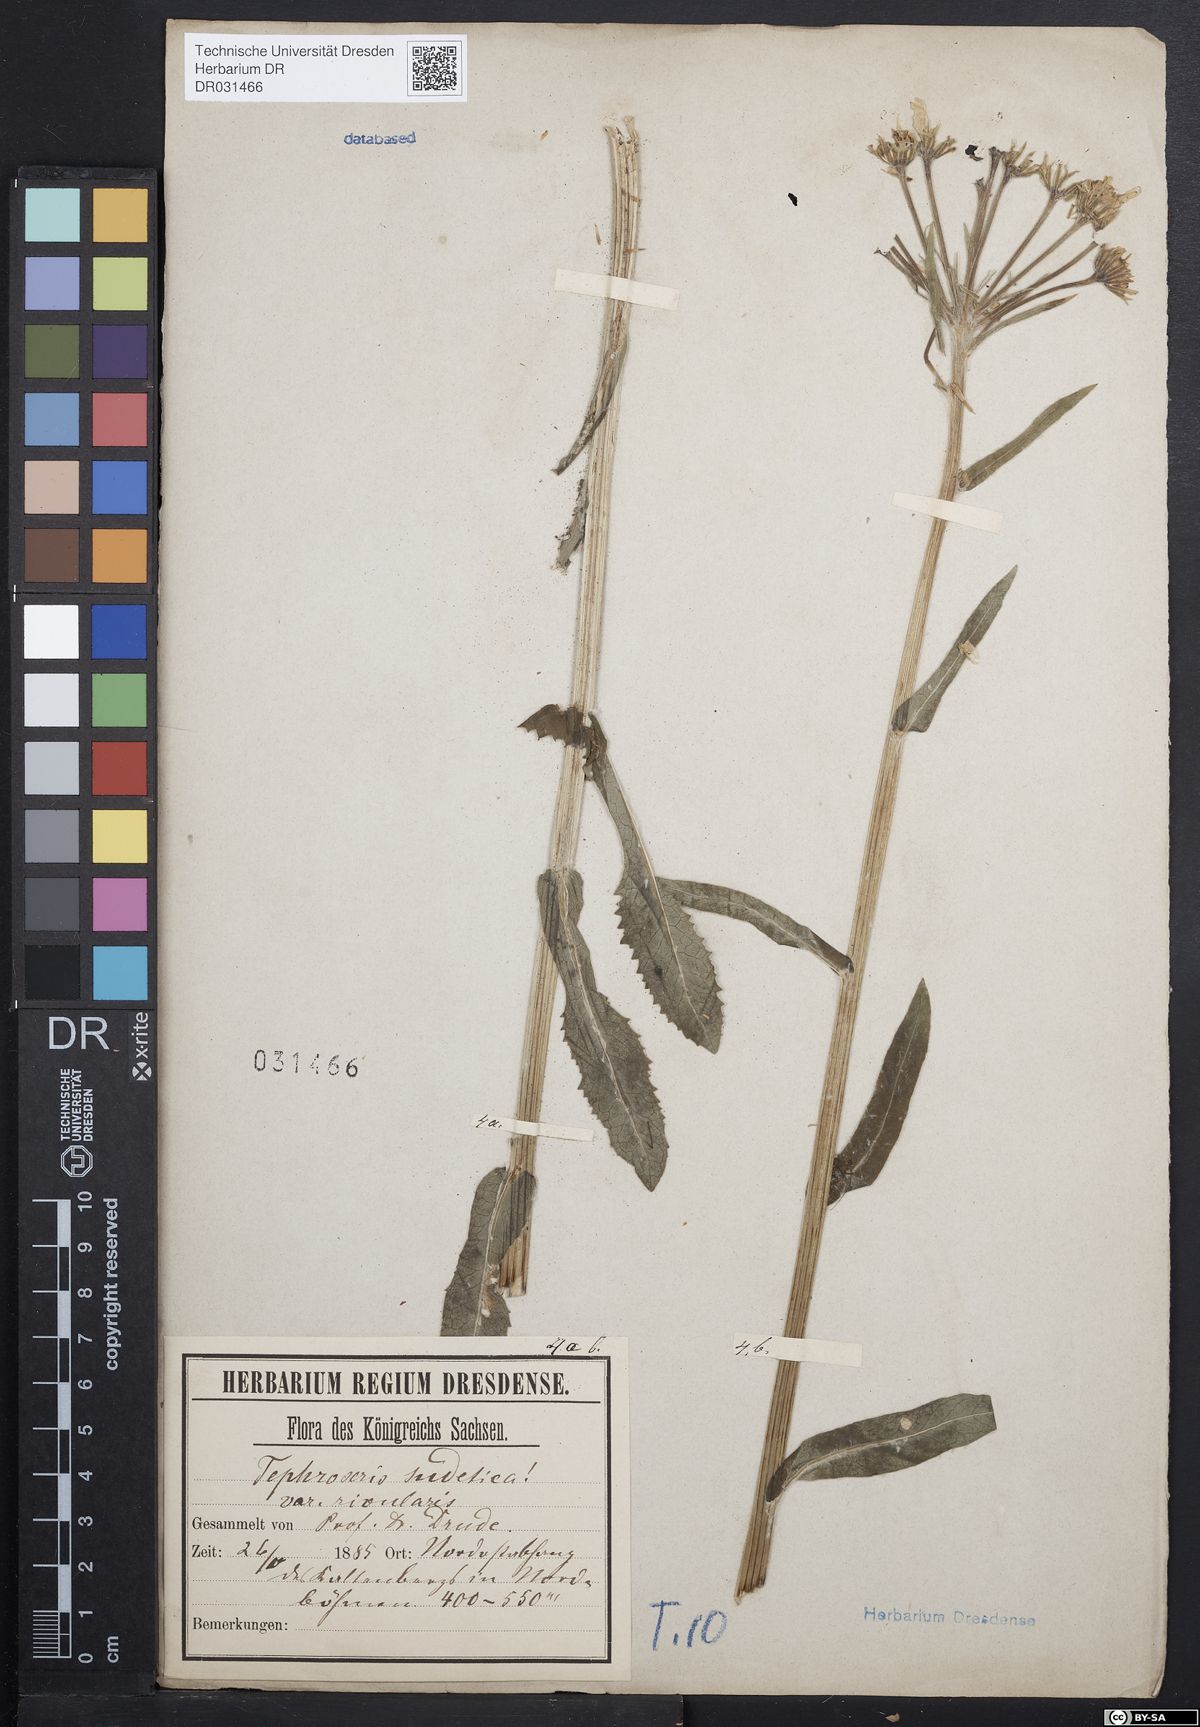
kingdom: Plantae
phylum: Tracheophyta
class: Magnoliopsida
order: Asterales
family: Asteraceae
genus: Tephroseris
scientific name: Tephroseris crispa
